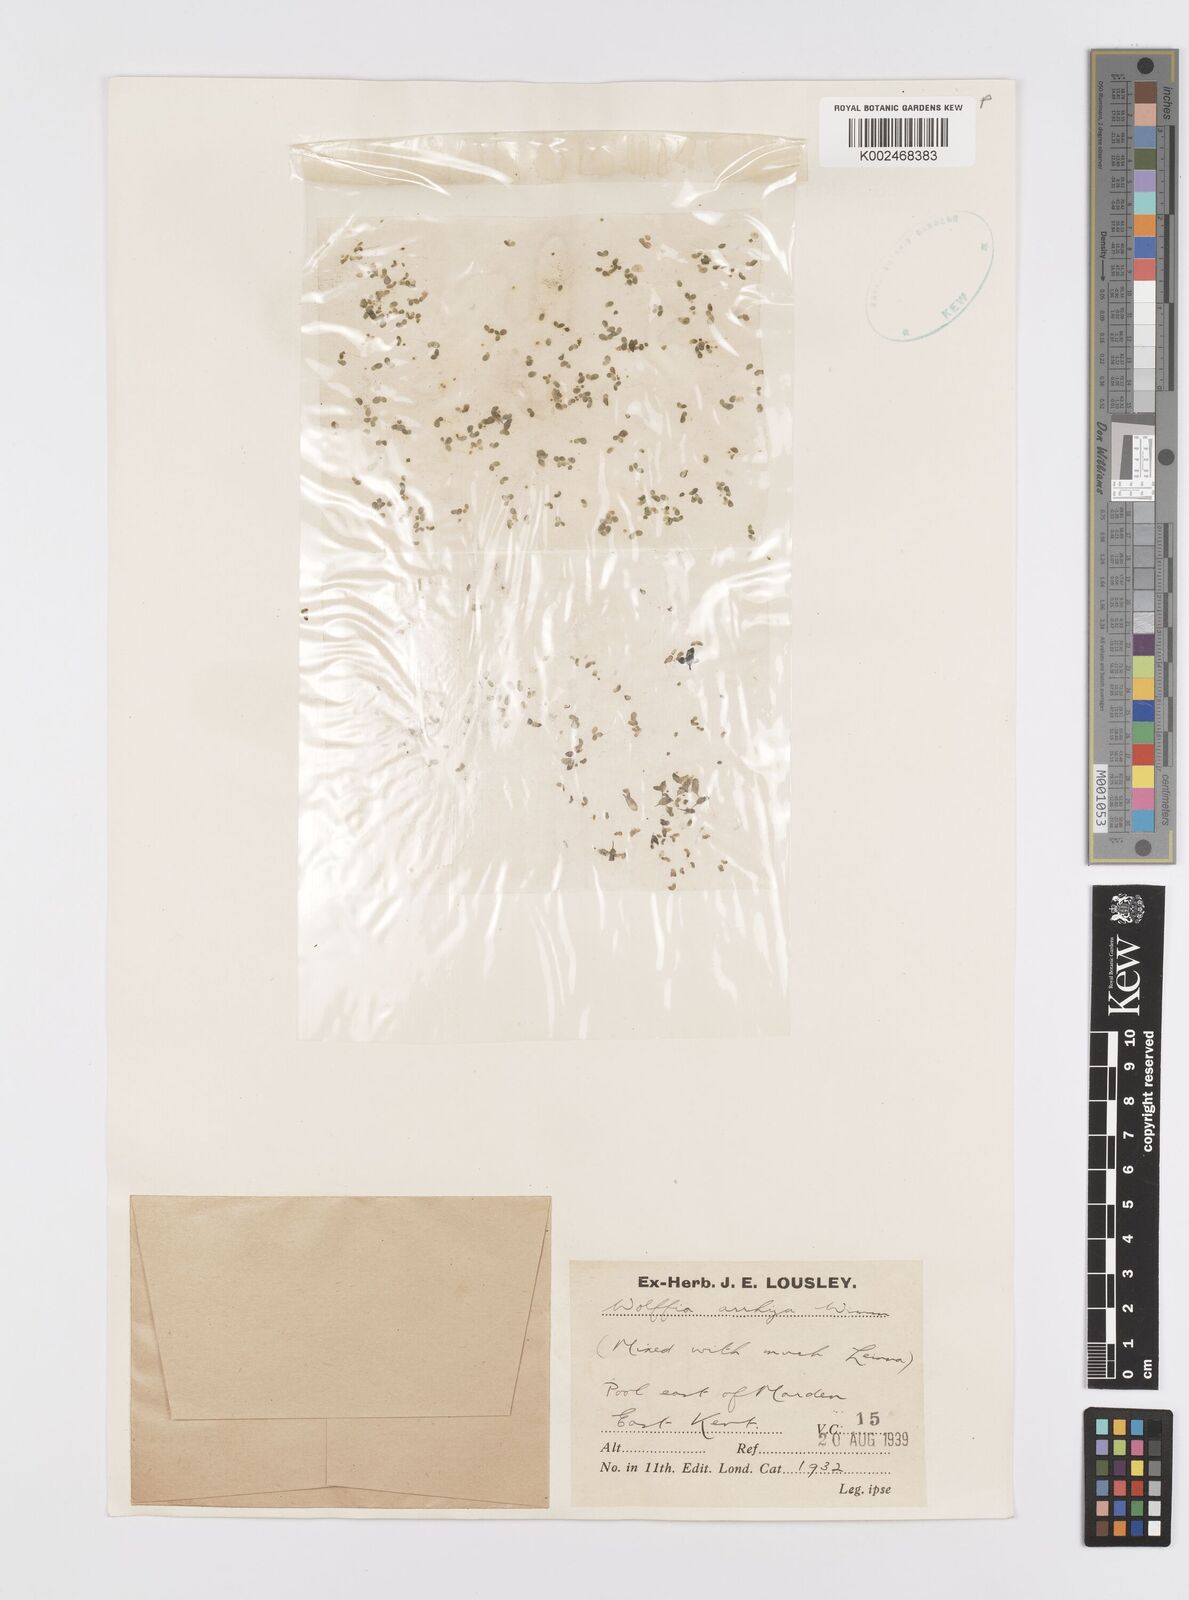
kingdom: Plantae
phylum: Tracheophyta
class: Liliopsida
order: Alismatales
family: Araceae
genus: Wolffia
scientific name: Wolffia arrhiza
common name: Rootless duckweed
